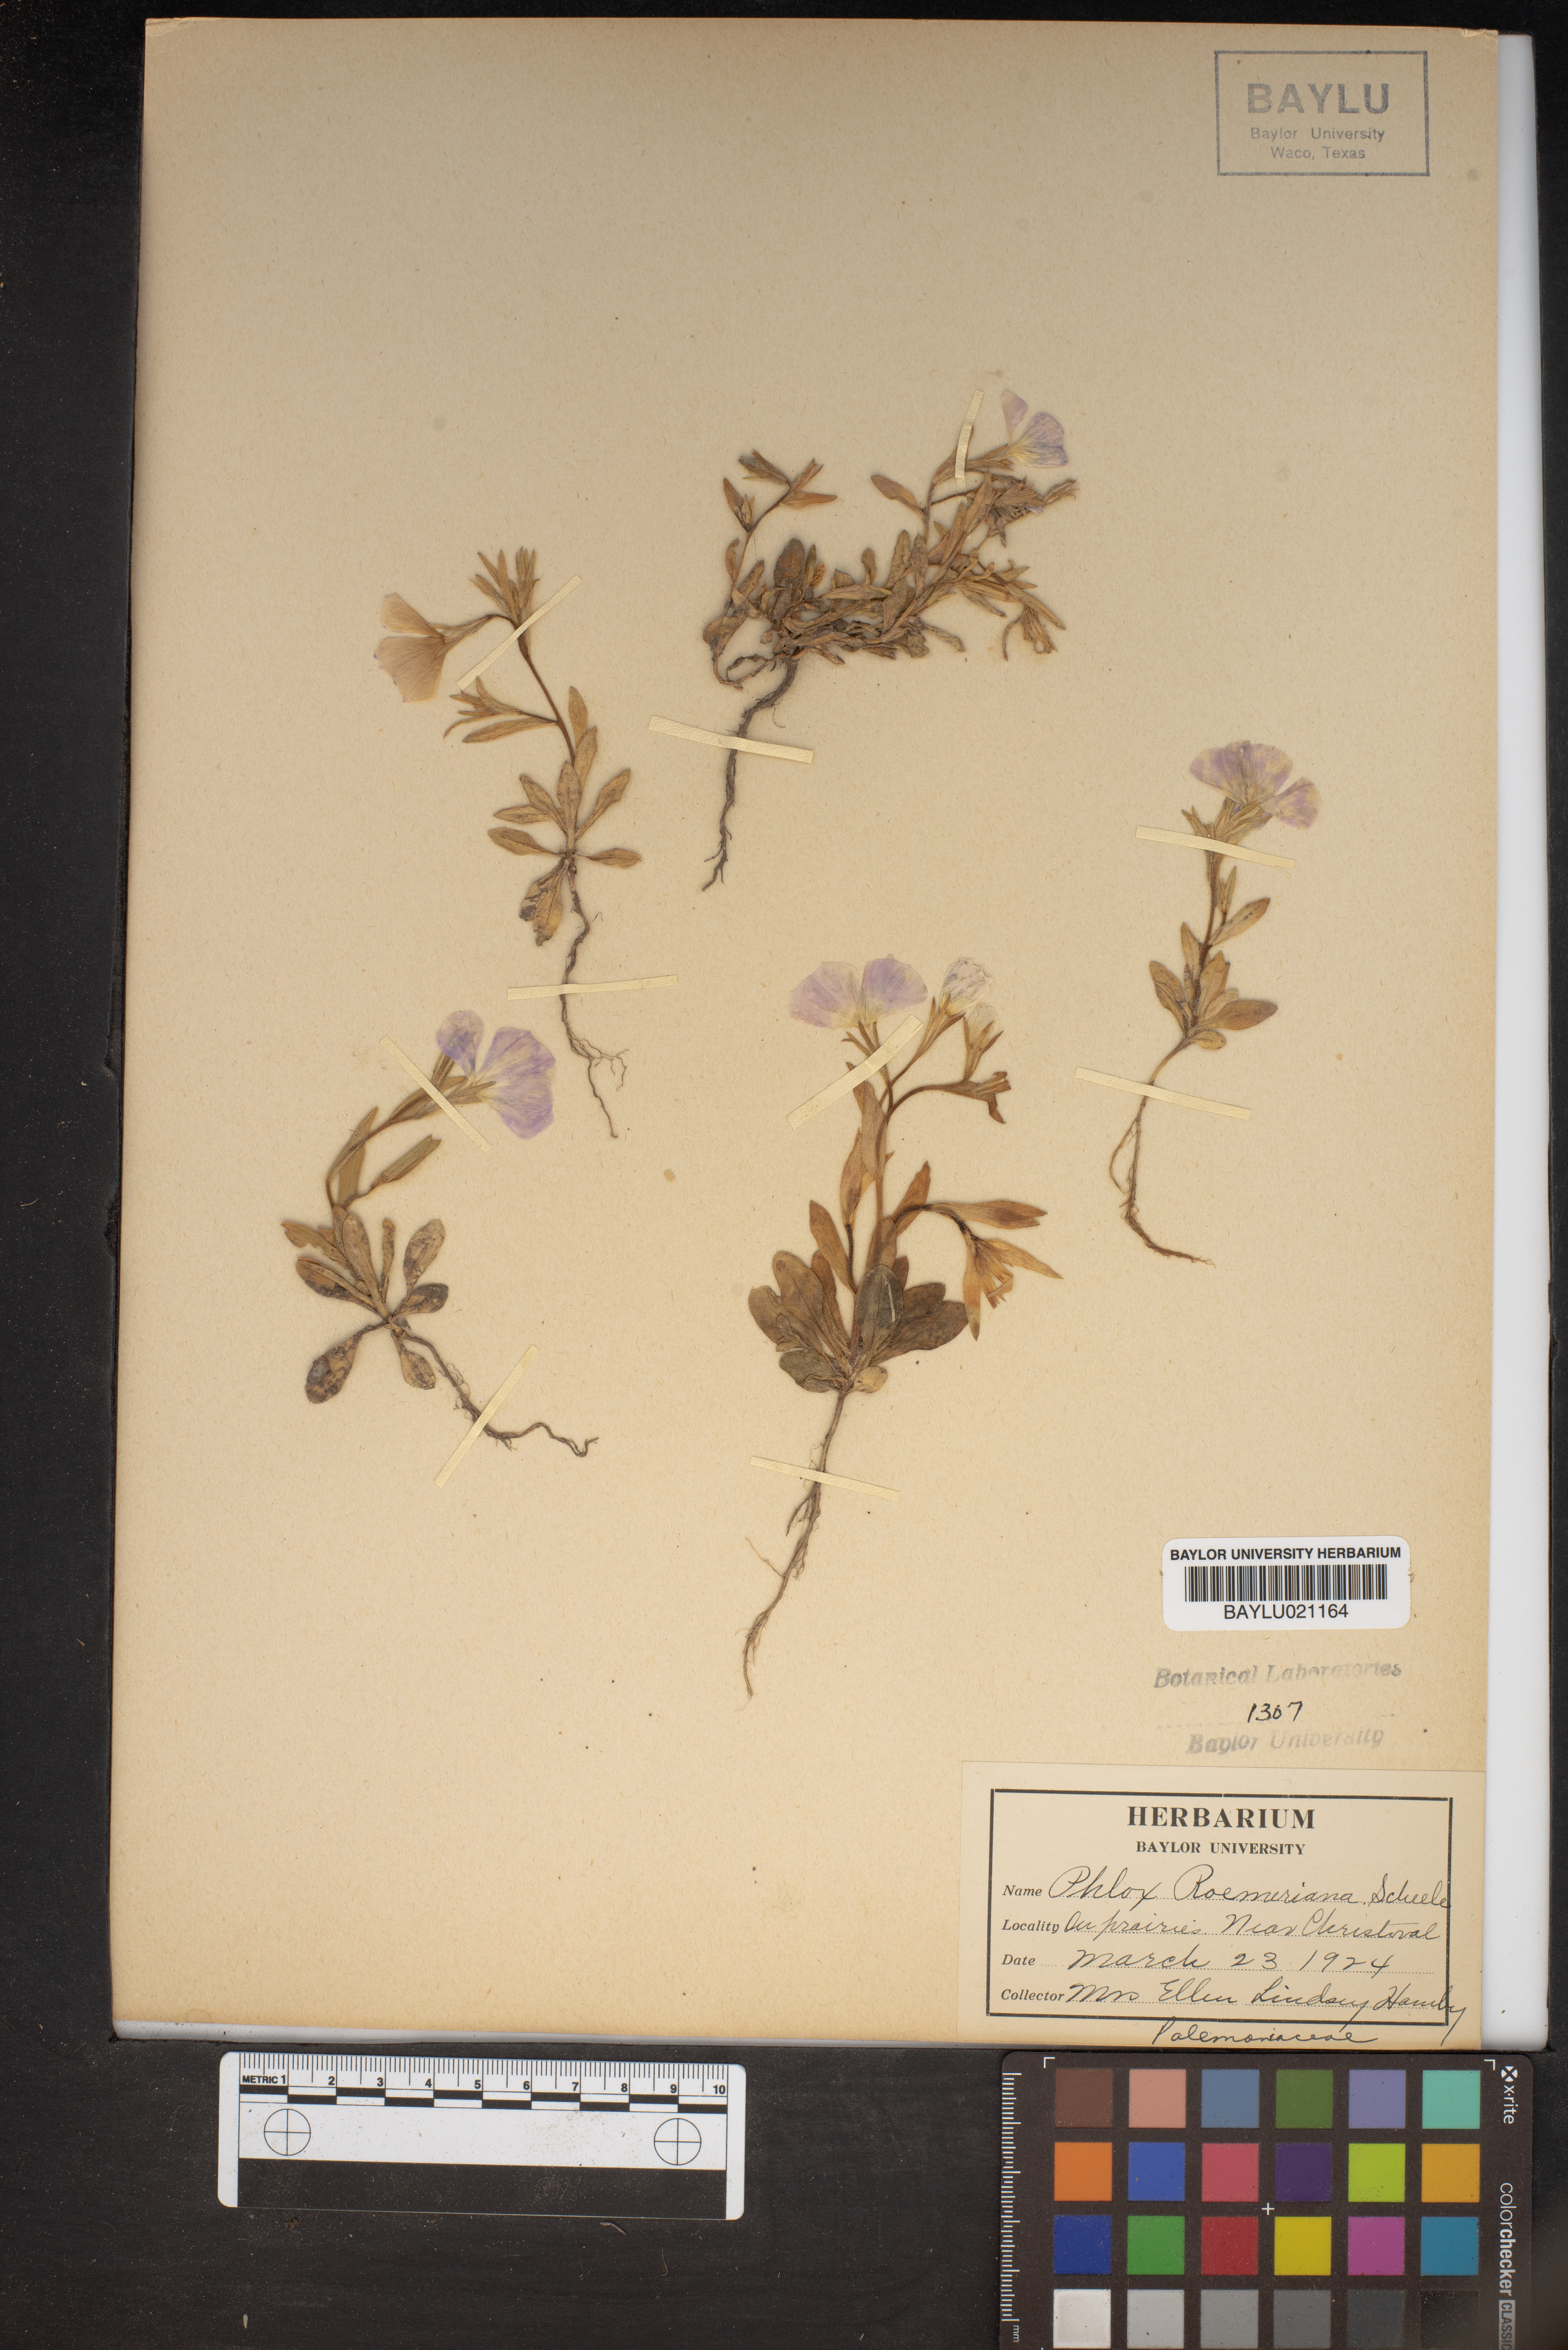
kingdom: Plantae
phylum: Tracheophyta
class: Magnoliopsida
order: Ericales
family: Polemoniaceae
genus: Phlox
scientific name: Phlox roemeriana
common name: Roemer's phlox
